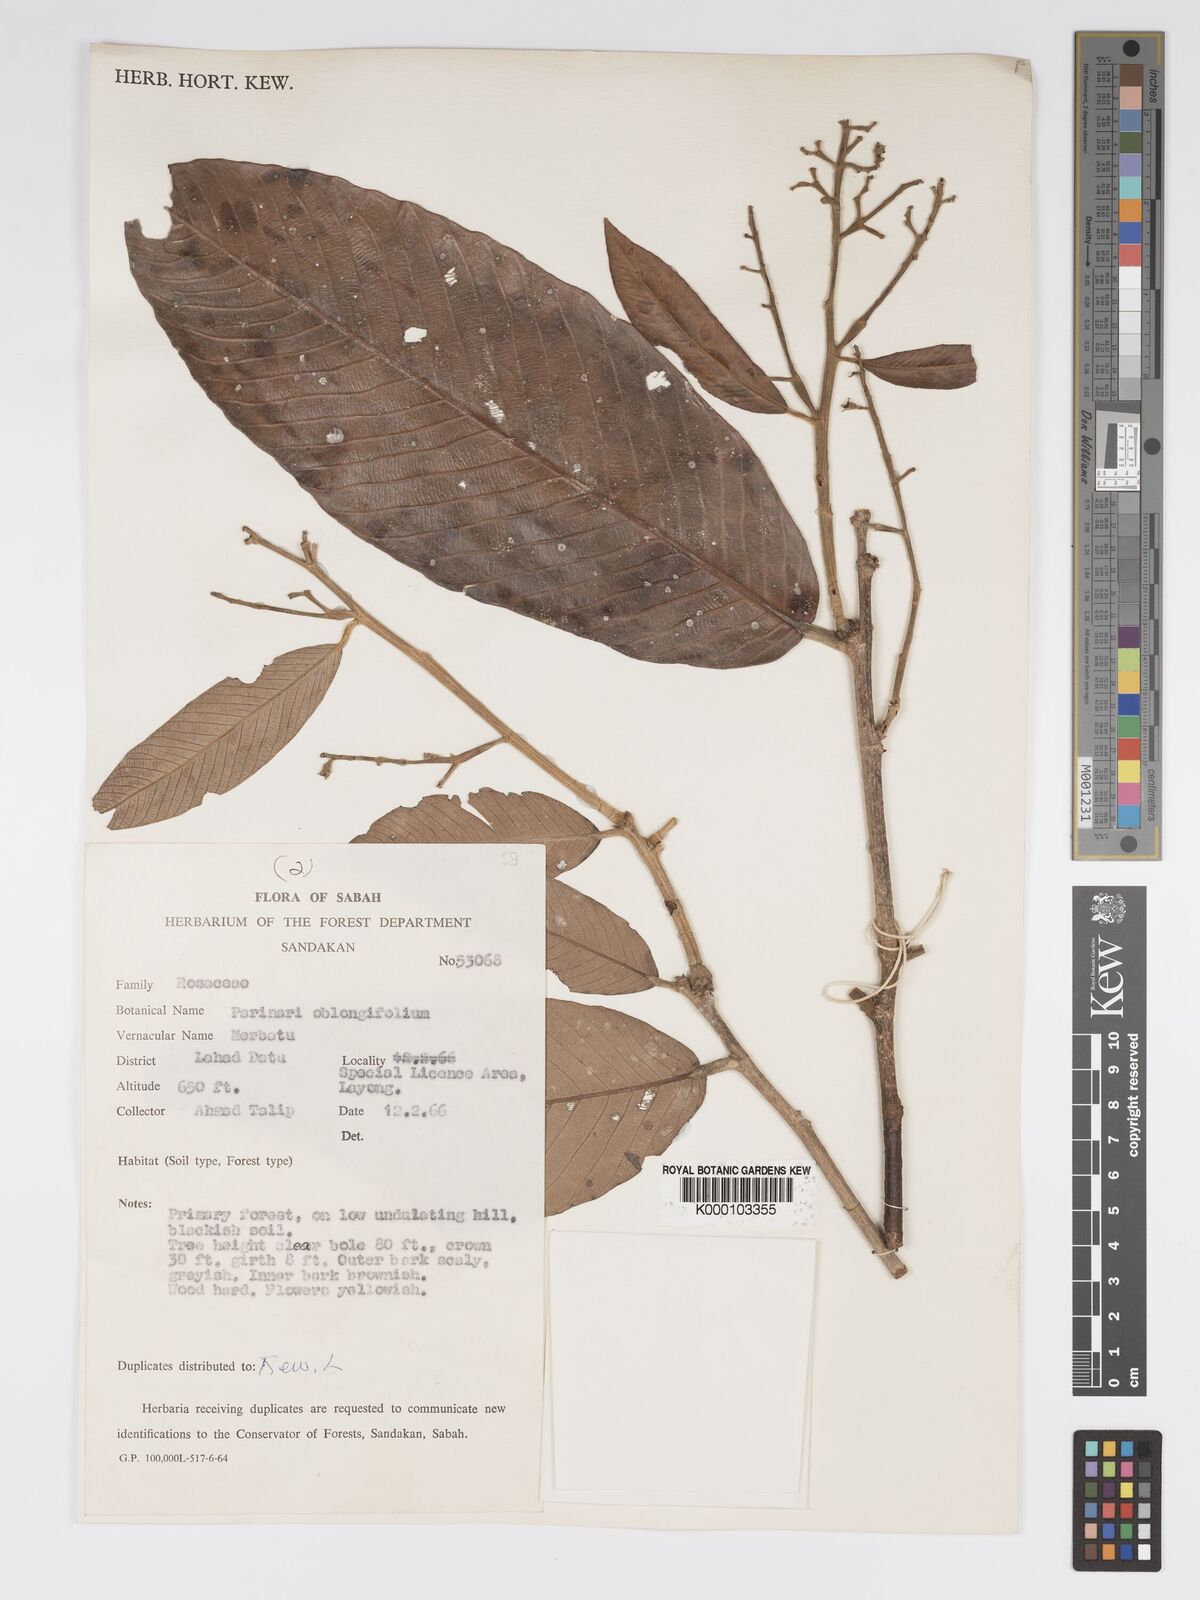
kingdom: Plantae
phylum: Tracheophyta
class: Magnoliopsida
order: Malpighiales
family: Chrysobalanaceae
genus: Parinari
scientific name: Parinari oblongifolia
